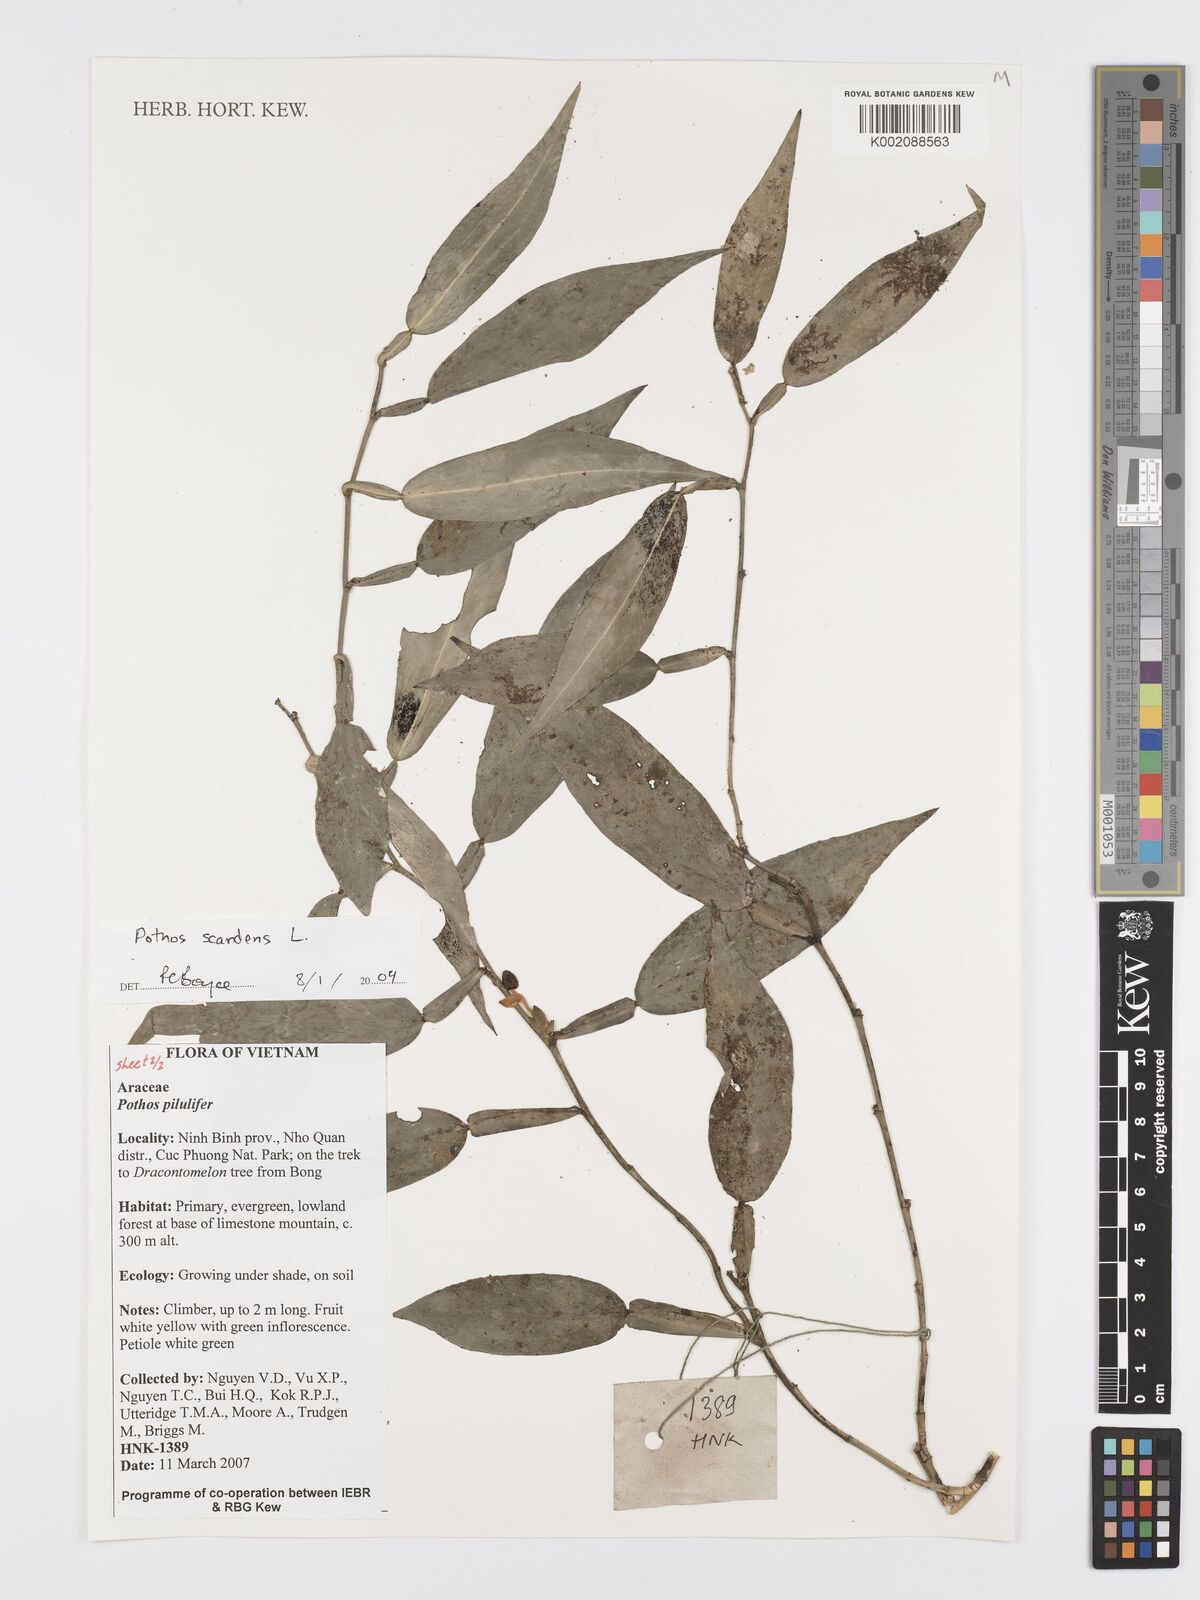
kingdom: Plantae
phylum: Tracheophyta
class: Liliopsida
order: Alismatales
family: Araceae
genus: Pothos
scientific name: Pothos scandens
